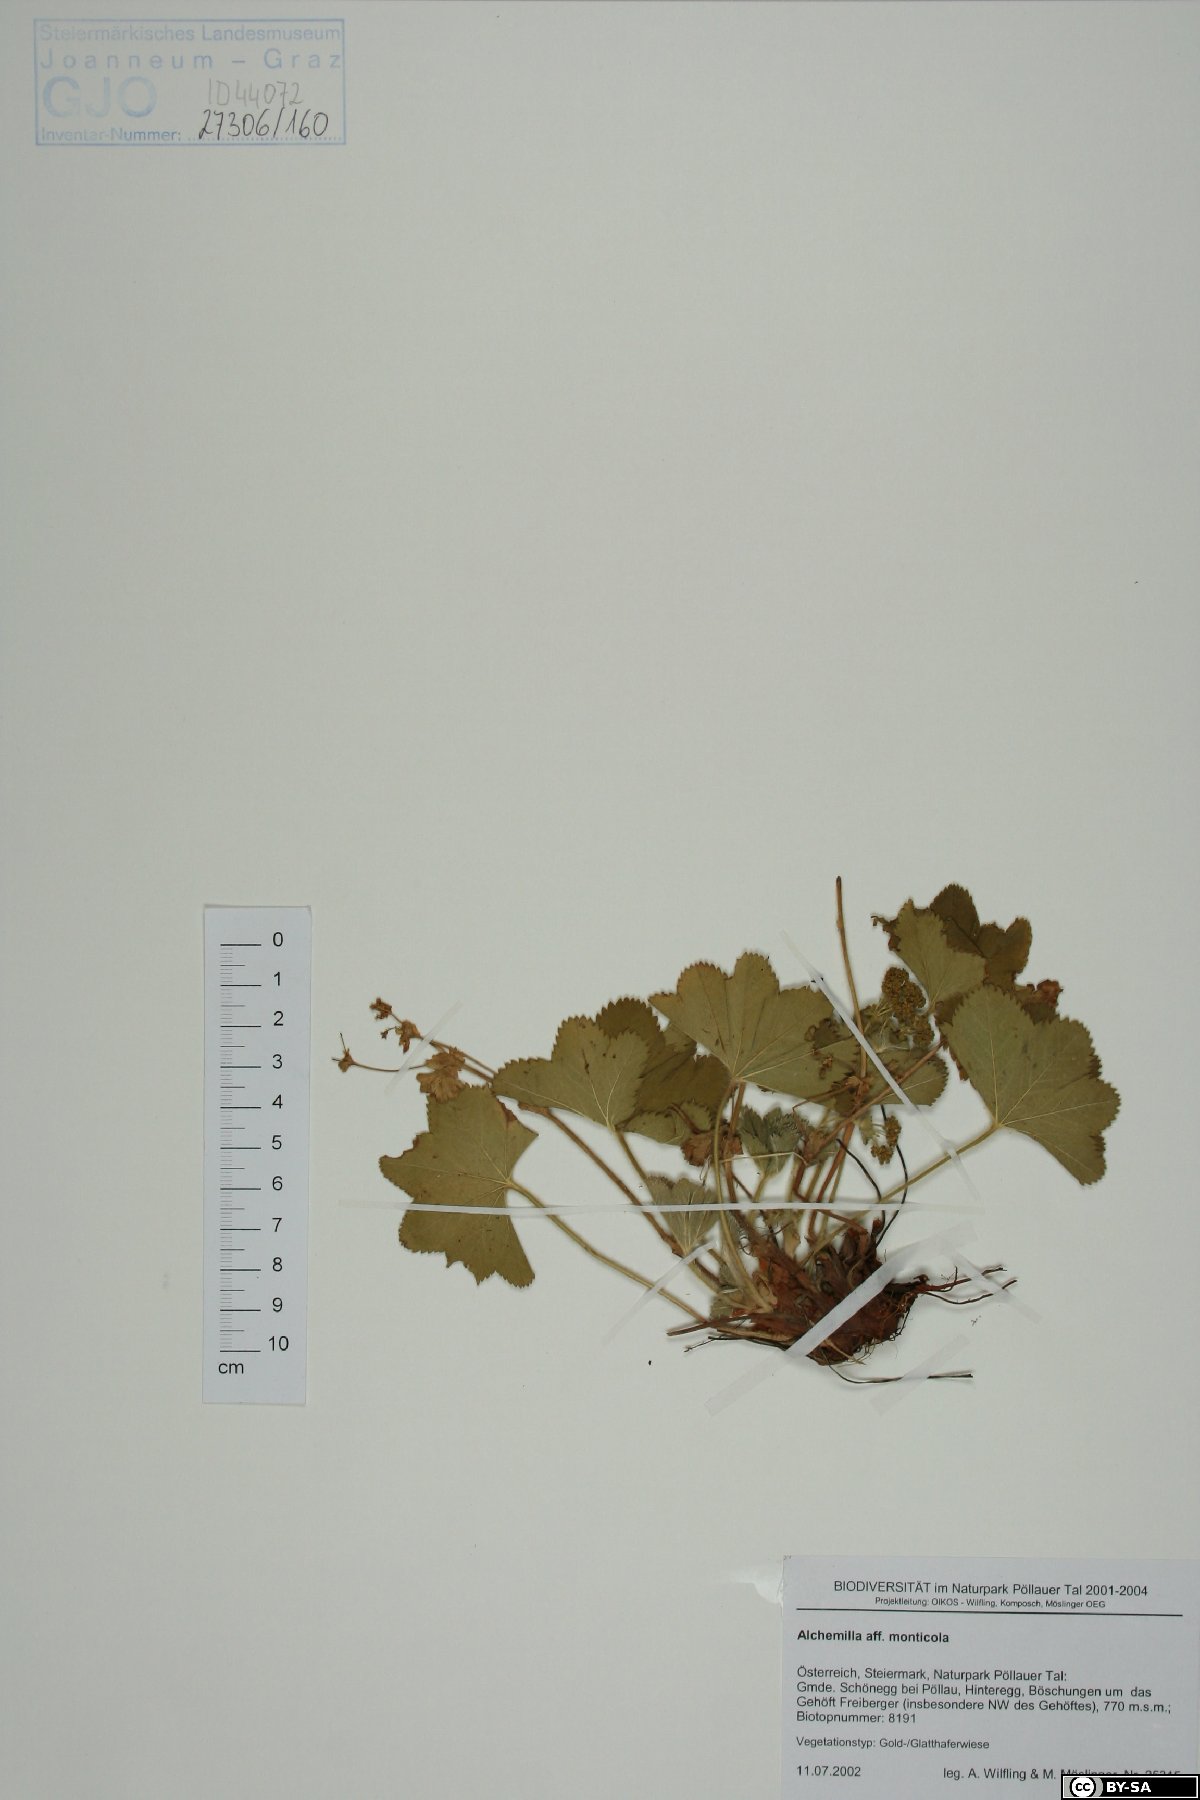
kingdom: Plantae
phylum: Tracheophyta
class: Magnoliopsida
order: Rosales
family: Rosaceae
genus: Alchemilla
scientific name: Alchemilla monticola
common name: Hairy lady's mantle
